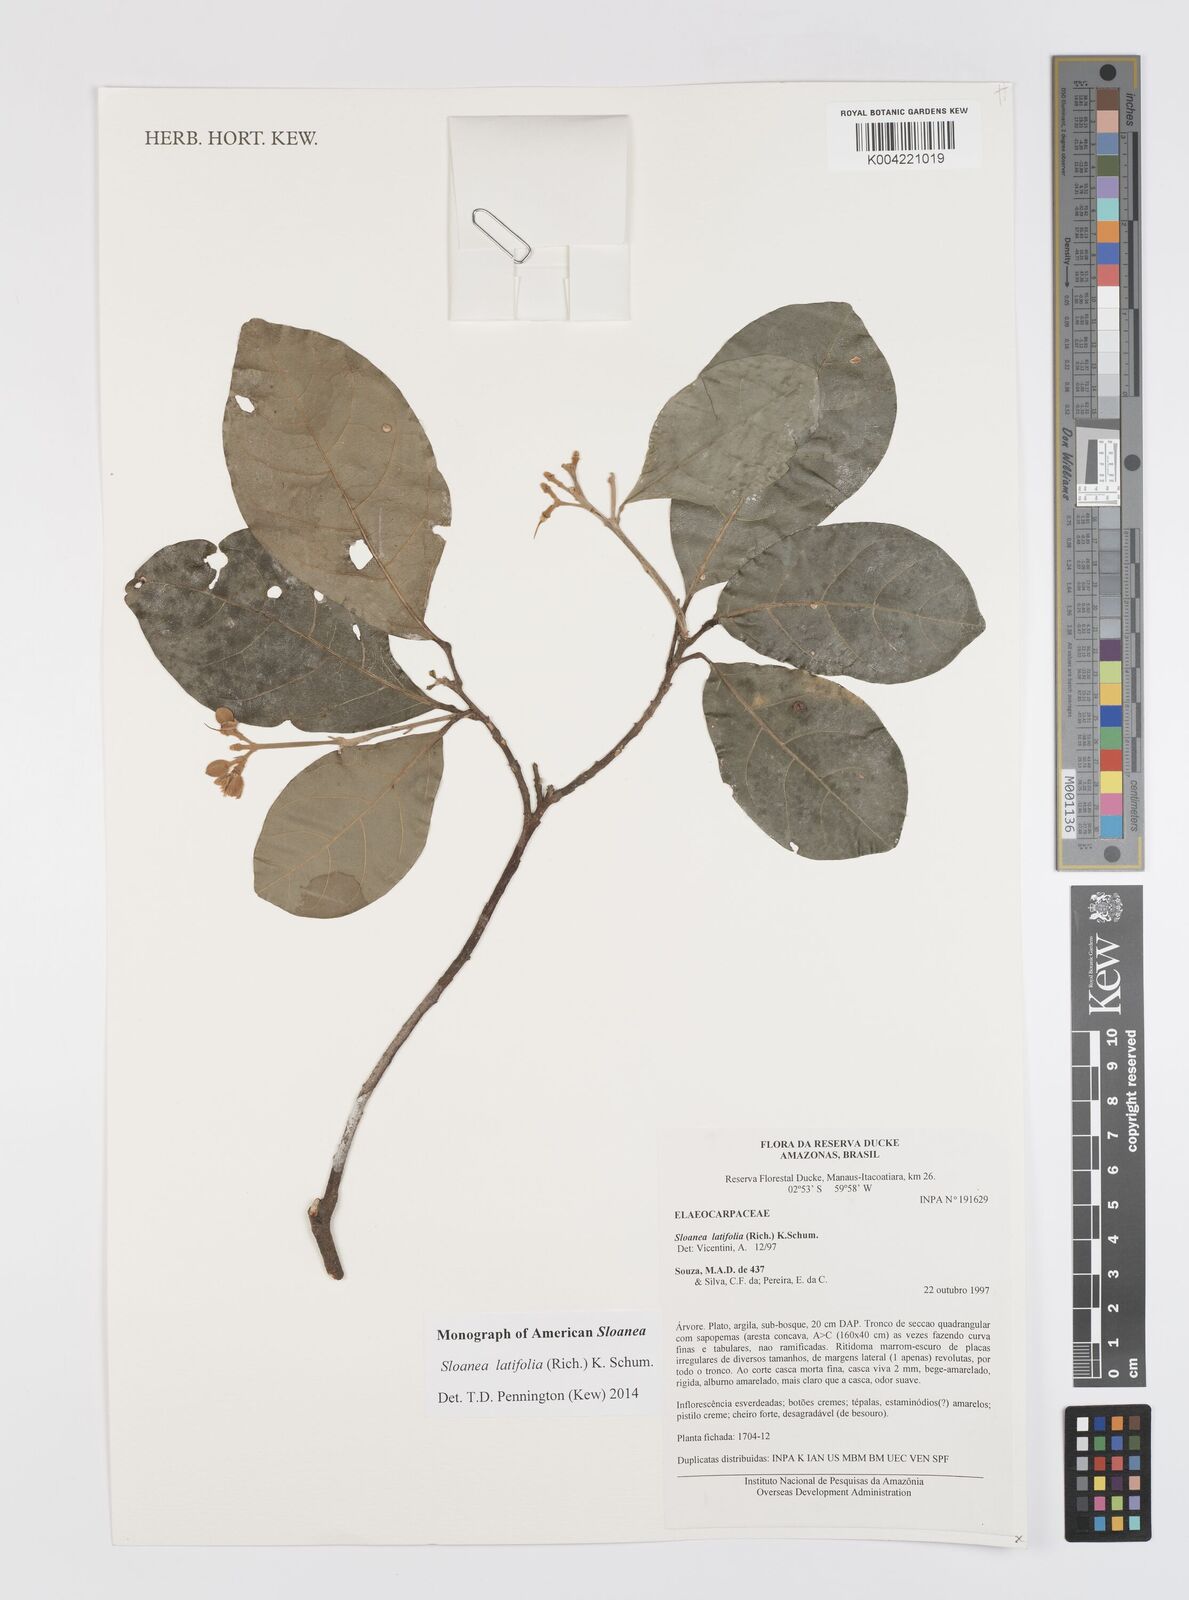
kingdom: Plantae
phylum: Tracheophyta
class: Magnoliopsida
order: Oxalidales
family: Elaeocarpaceae
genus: Sloanea
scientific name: Sloanea latifolia
